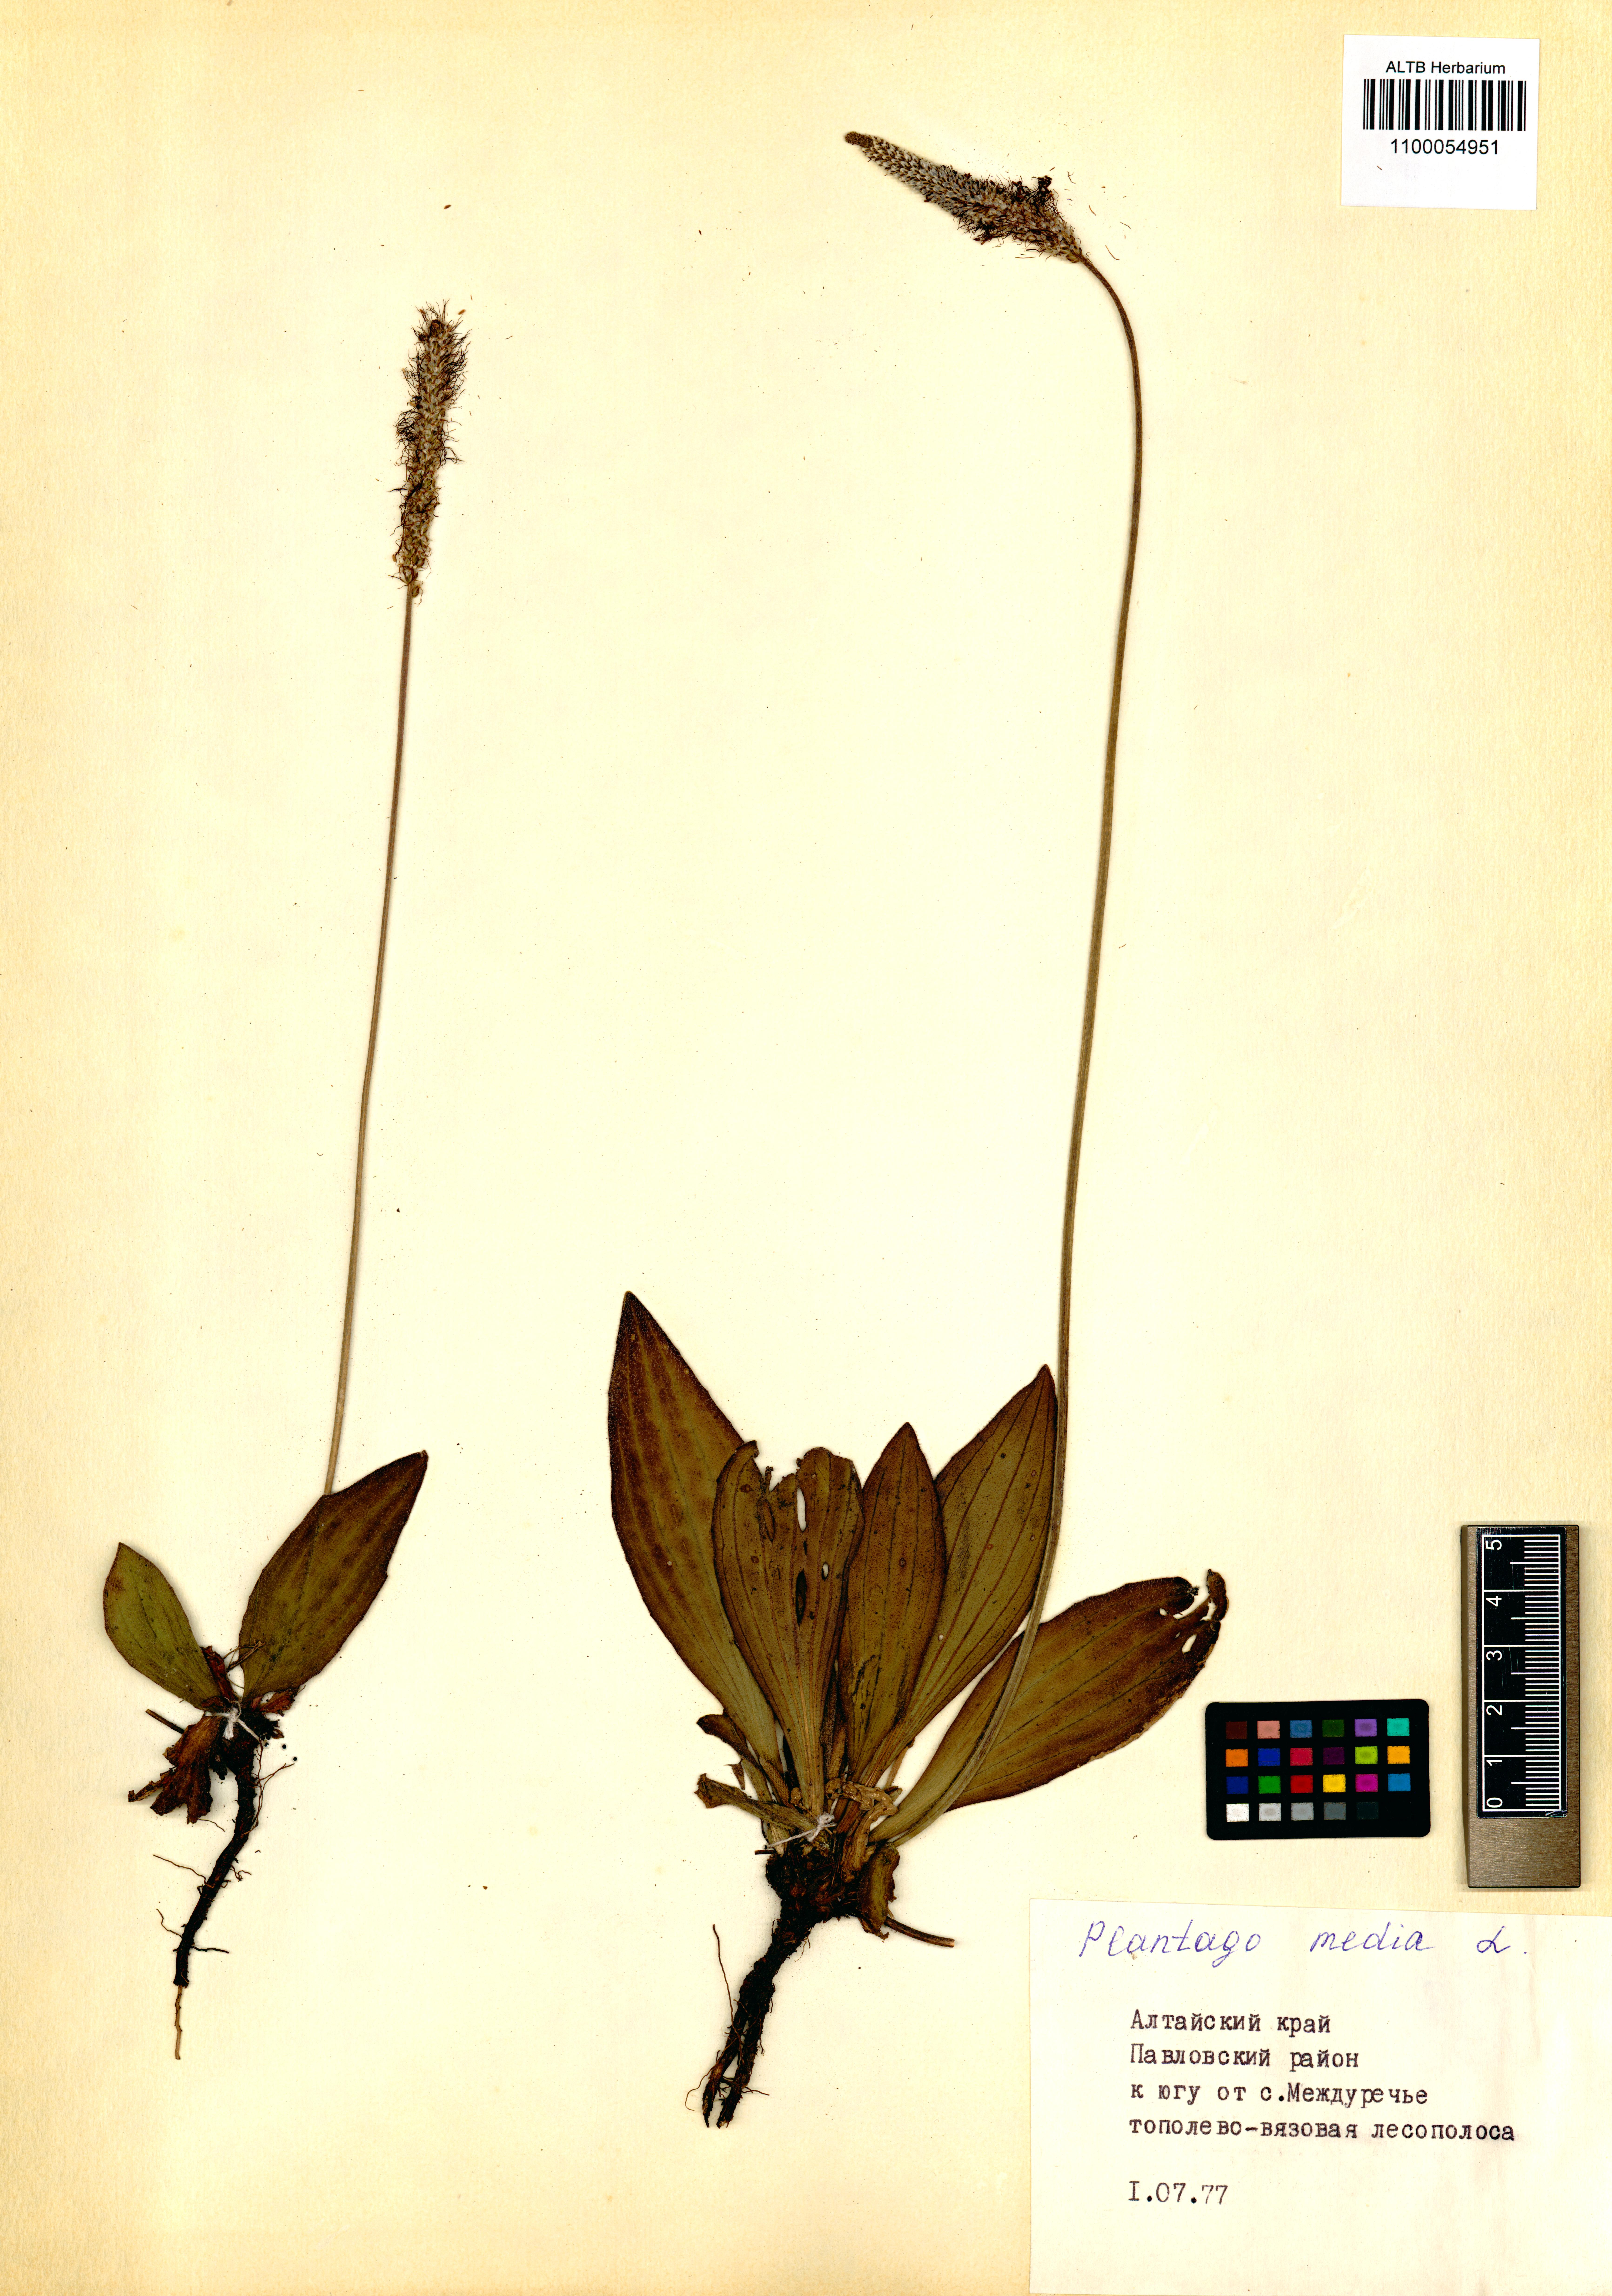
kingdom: Plantae
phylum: Tracheophyta
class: Magnoliopsida
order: Lamiales
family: Plantaginaceae
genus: Plantago
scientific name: Plantago media
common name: Hoary plantain
